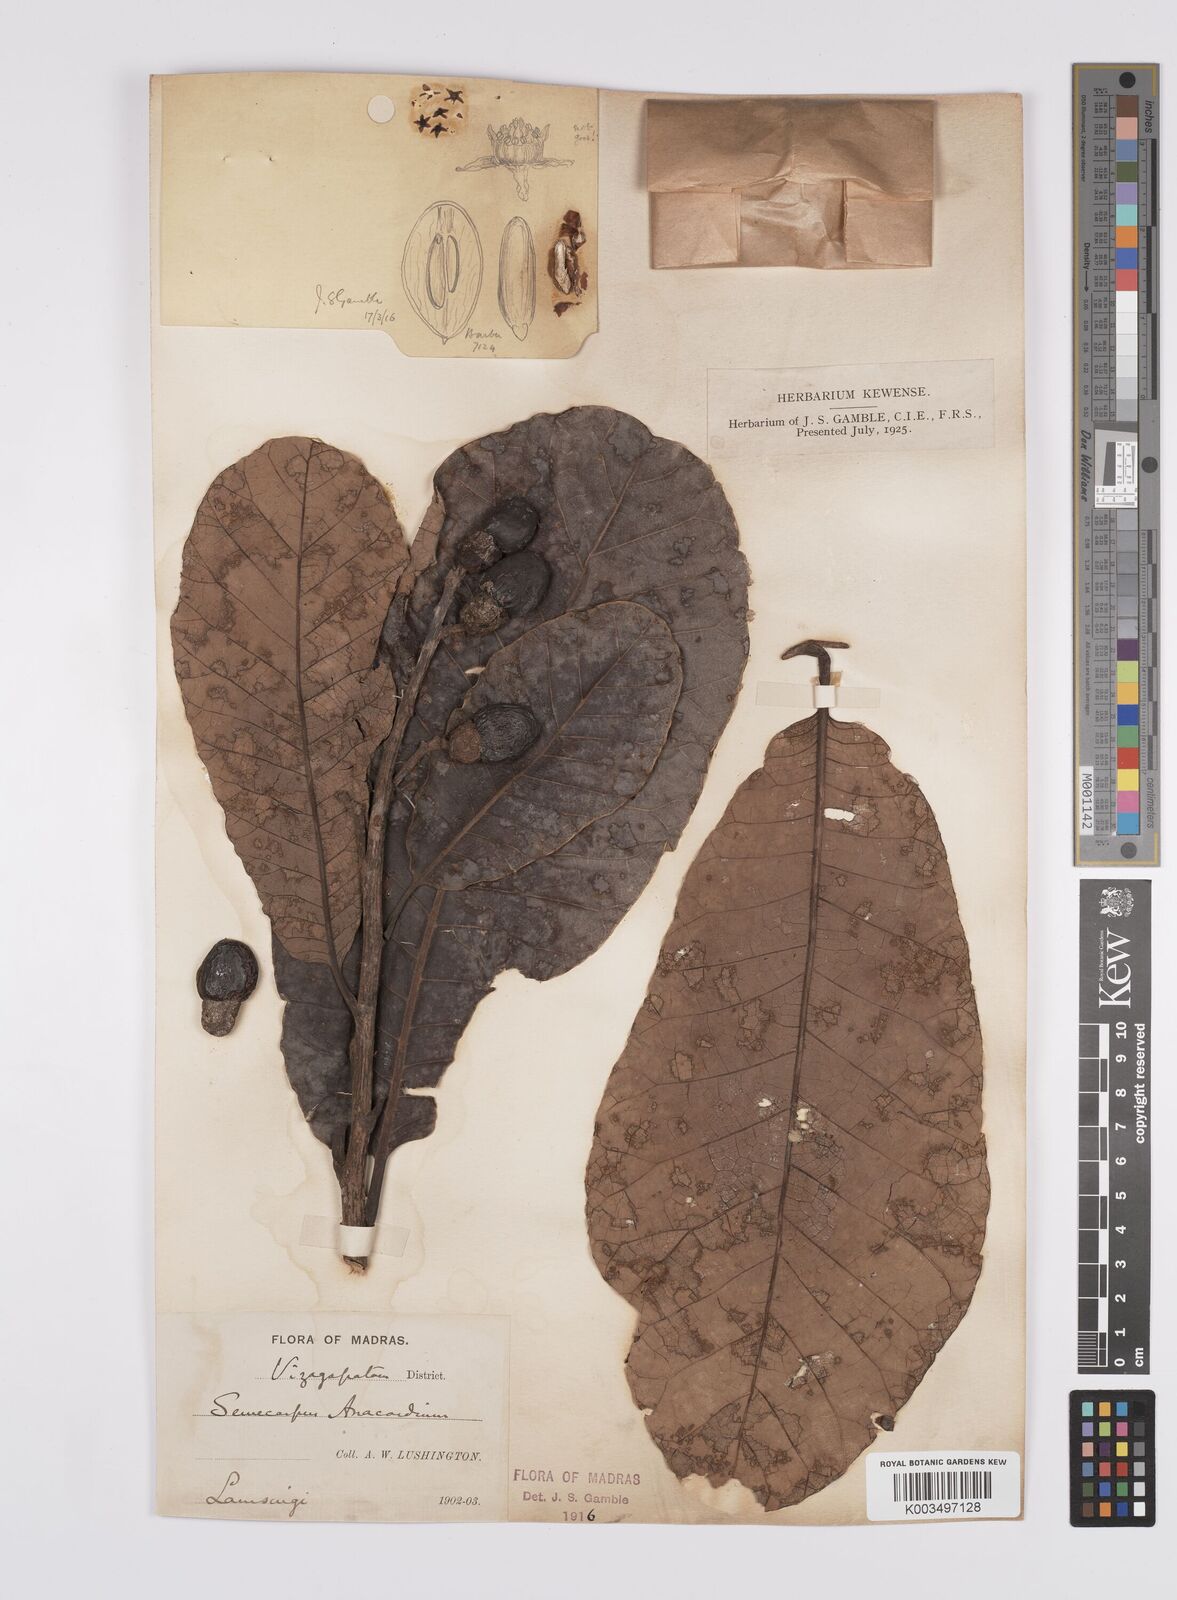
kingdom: Plantae
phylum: Tracheophyta
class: Magnoliopsida
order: Sapindales
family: Anacardiaceae
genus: Semecarpus
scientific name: Semecarpus anacardium
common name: Marking nut-tree
